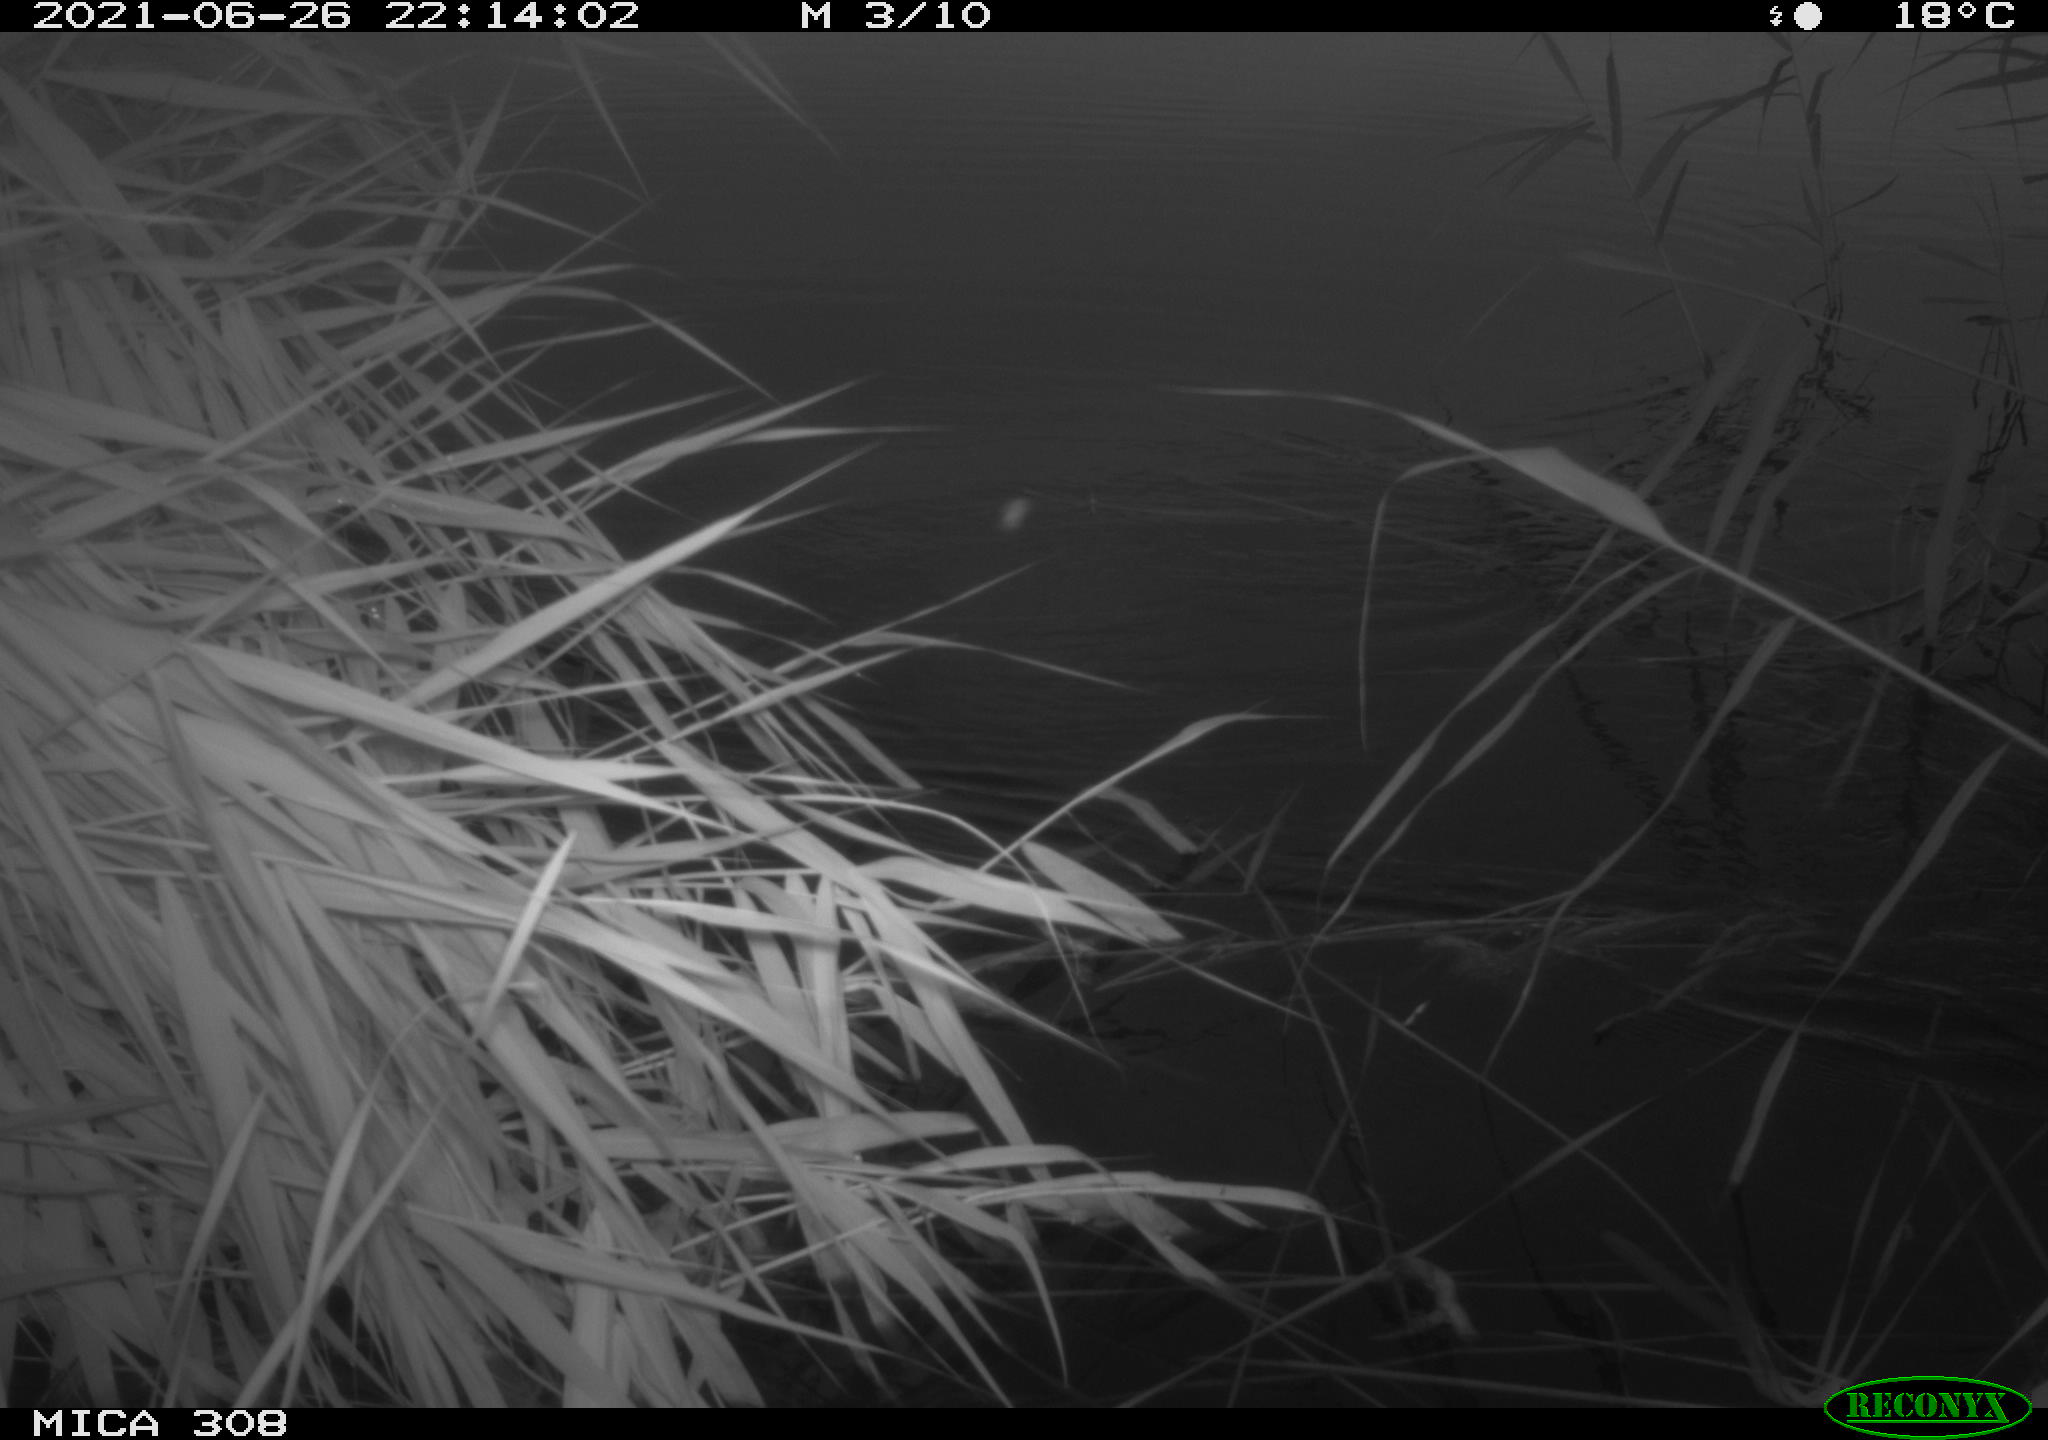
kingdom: Animalia
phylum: Chordata
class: Aves
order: Anseriformes
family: Anatidae
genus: Anas
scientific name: Anas platyrhynchos
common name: Mallard
